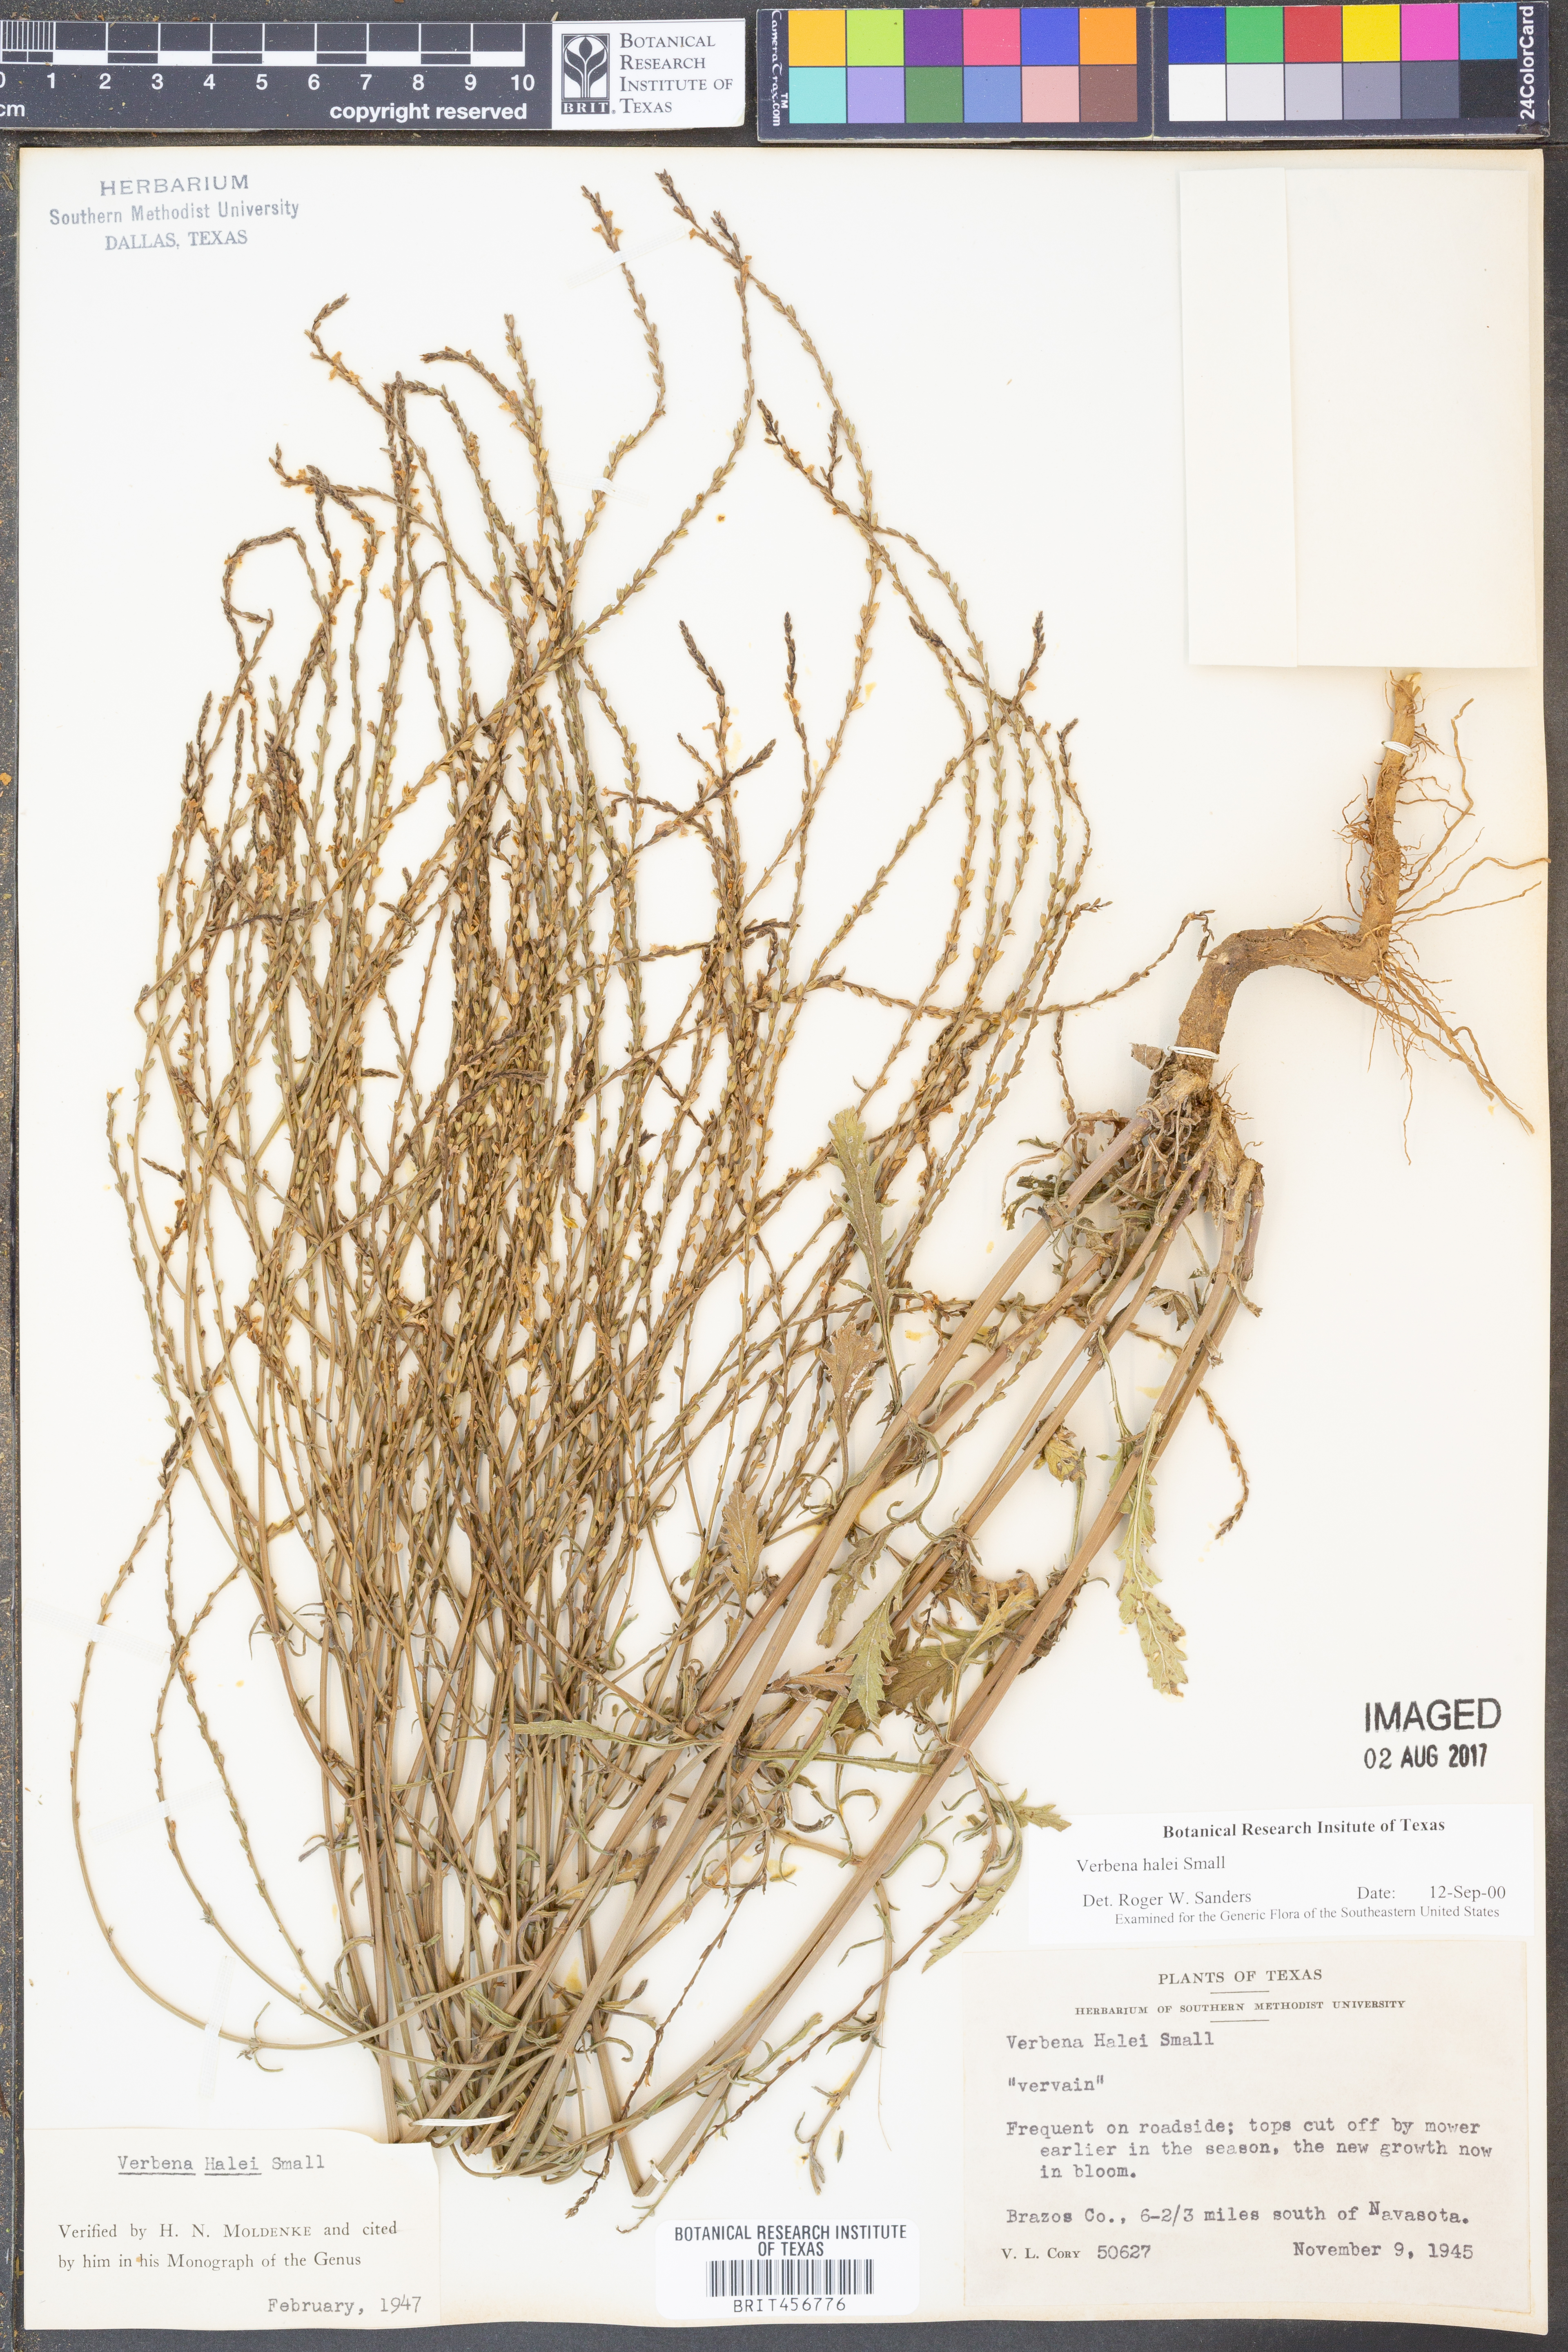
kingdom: Plantae
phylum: Tracheophyta
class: Magnoliopsida
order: Lamiales
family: Verbenaceae
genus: Verbena
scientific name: Verbena halei
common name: Texas vervain
